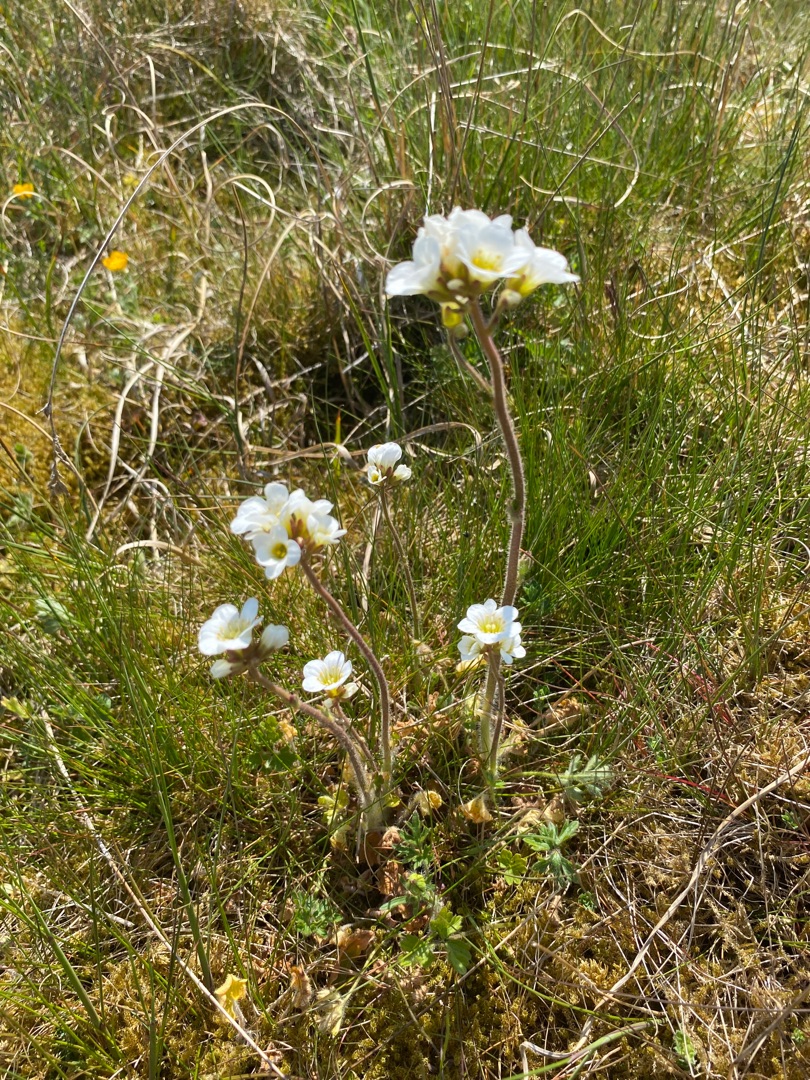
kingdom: Plantae
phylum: Tracheophyta
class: Magnoliopsida
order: Saxifragales
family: Saxifragaceae
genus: Saxifraga
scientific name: Saxifraga granulata
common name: Kornet stenbræk
